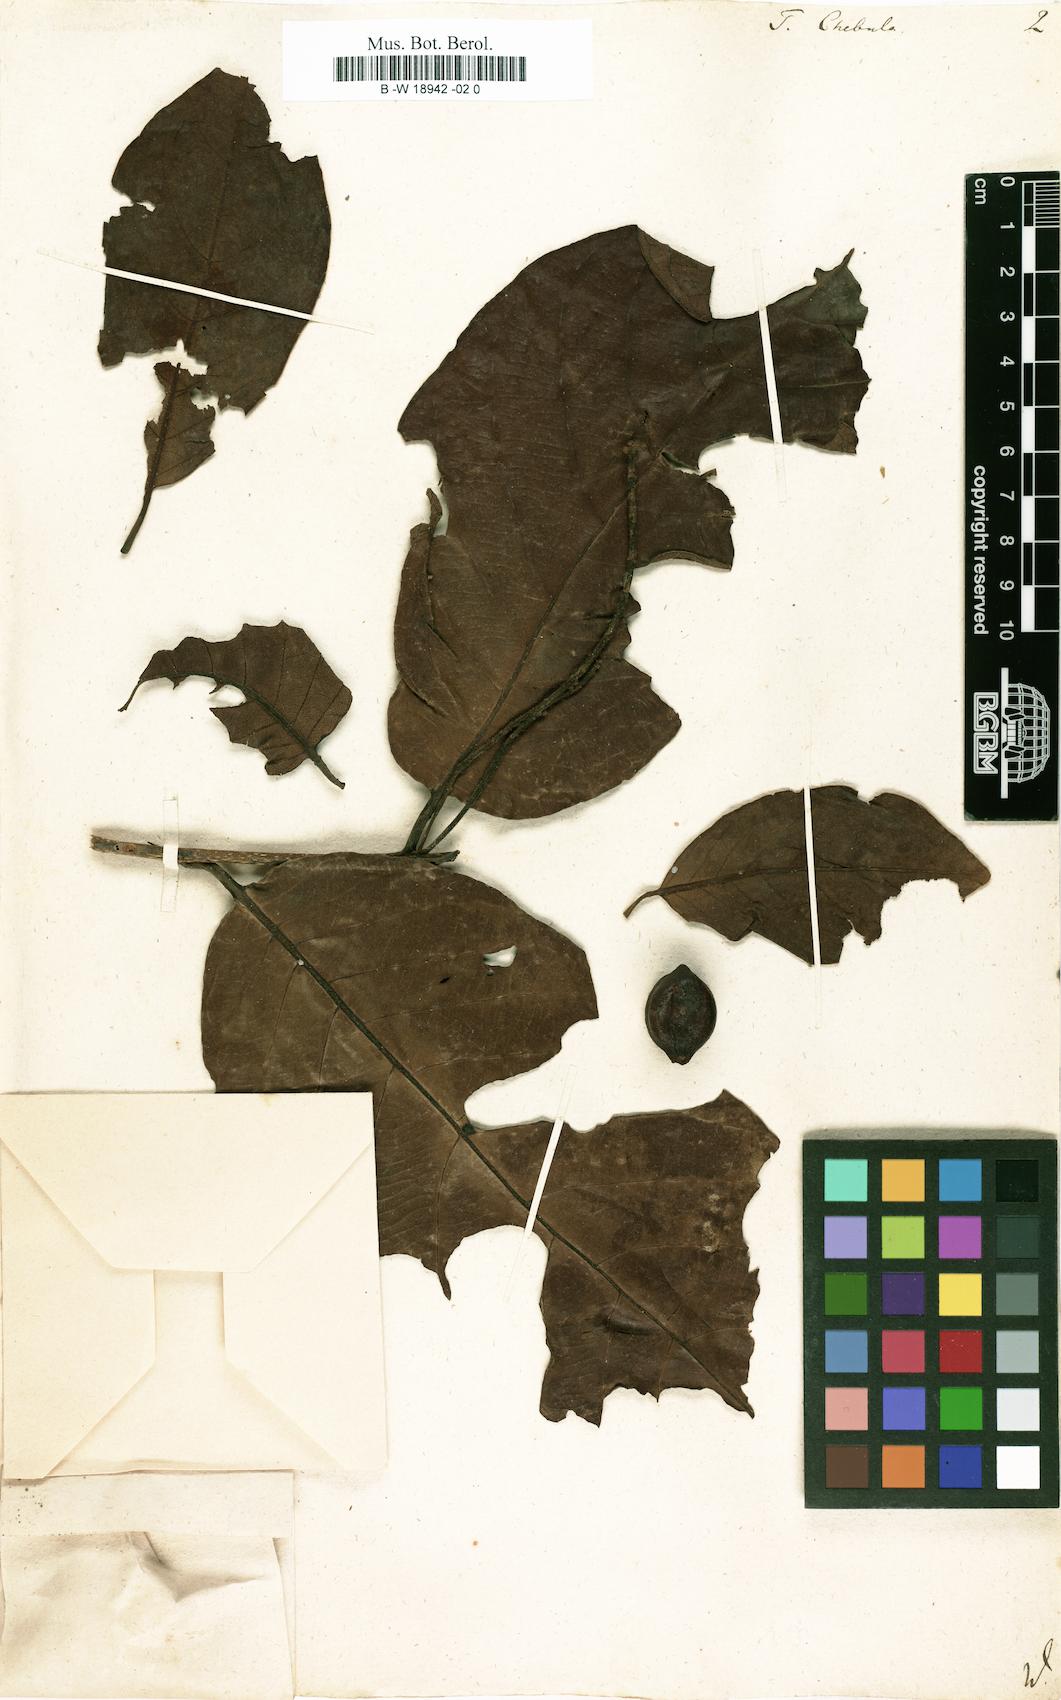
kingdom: Plantae
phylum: Tracheophyta
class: Magnoliopsida
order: Myrtales
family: Combretaceae
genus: Terminalia
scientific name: Terminalia chebula
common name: Myrobalan
